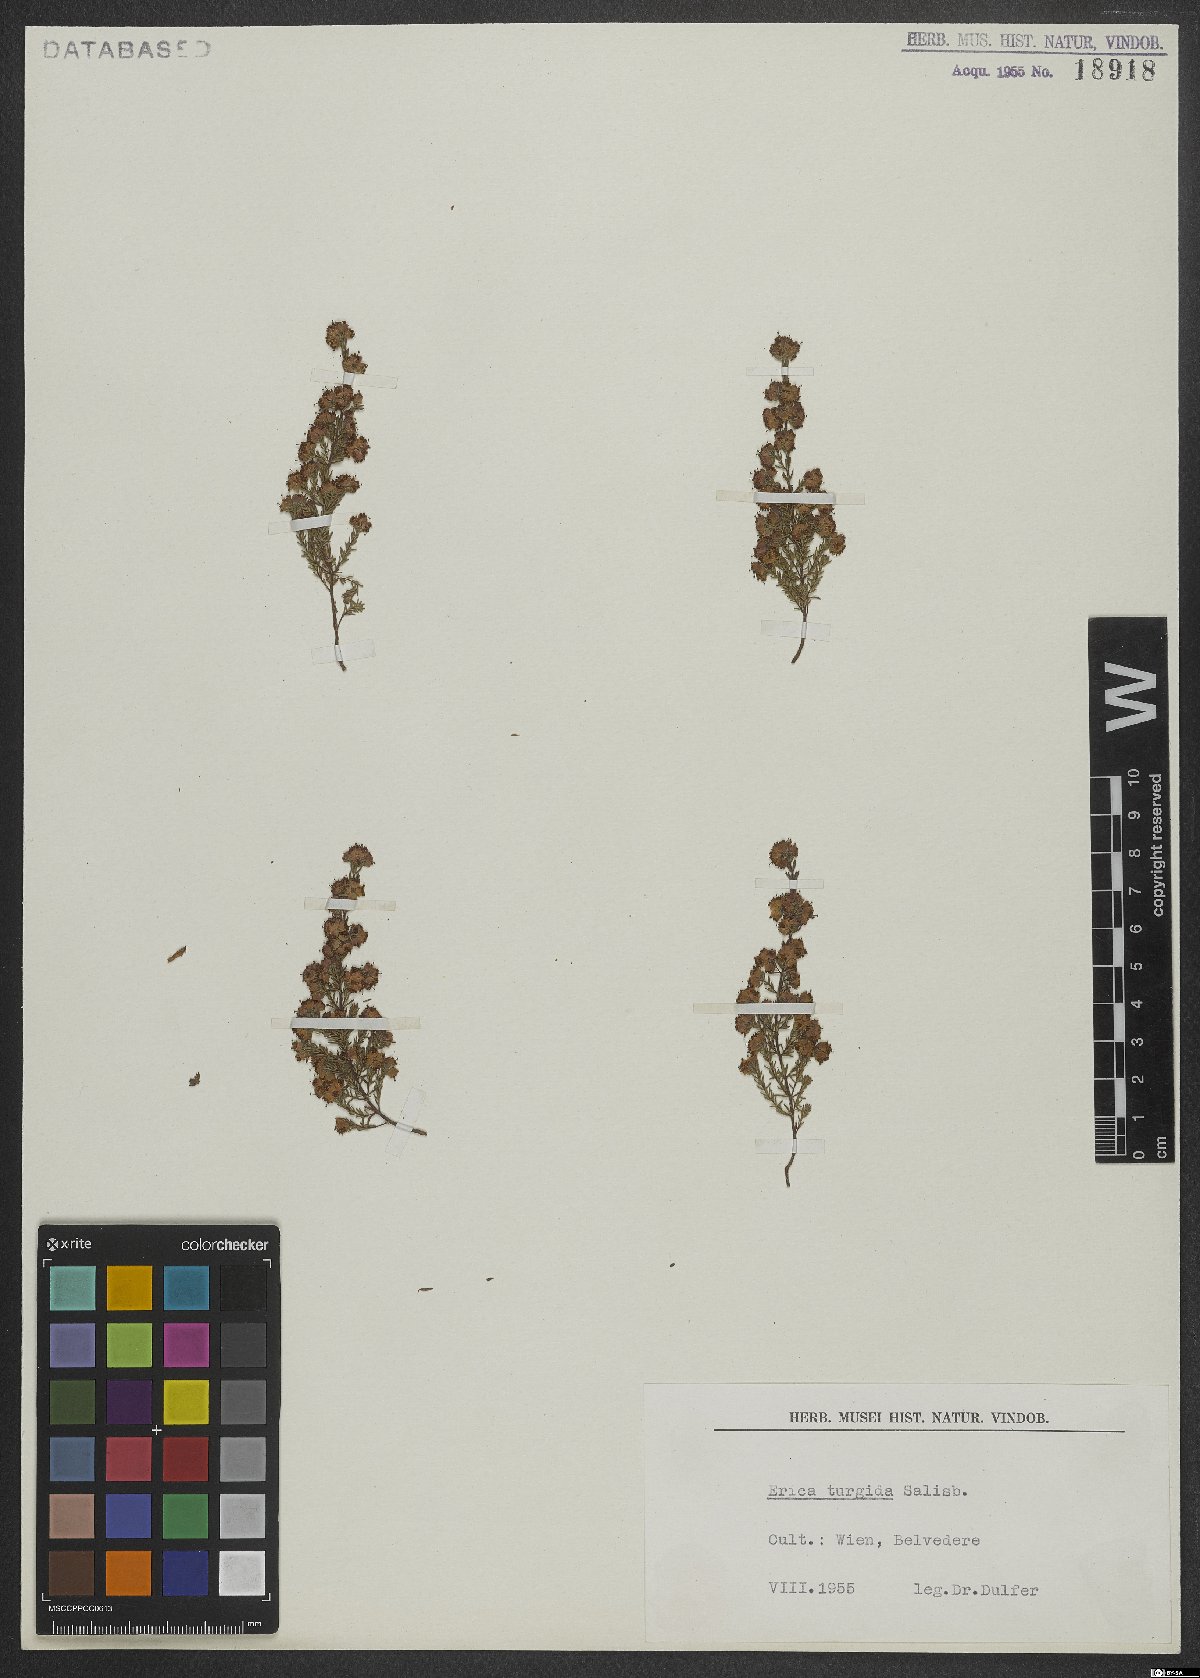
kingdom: Plantae
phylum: Tracheophyta
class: Magnoliopsida
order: Ericales
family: Ericaceae
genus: Erica
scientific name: Erica turgida
